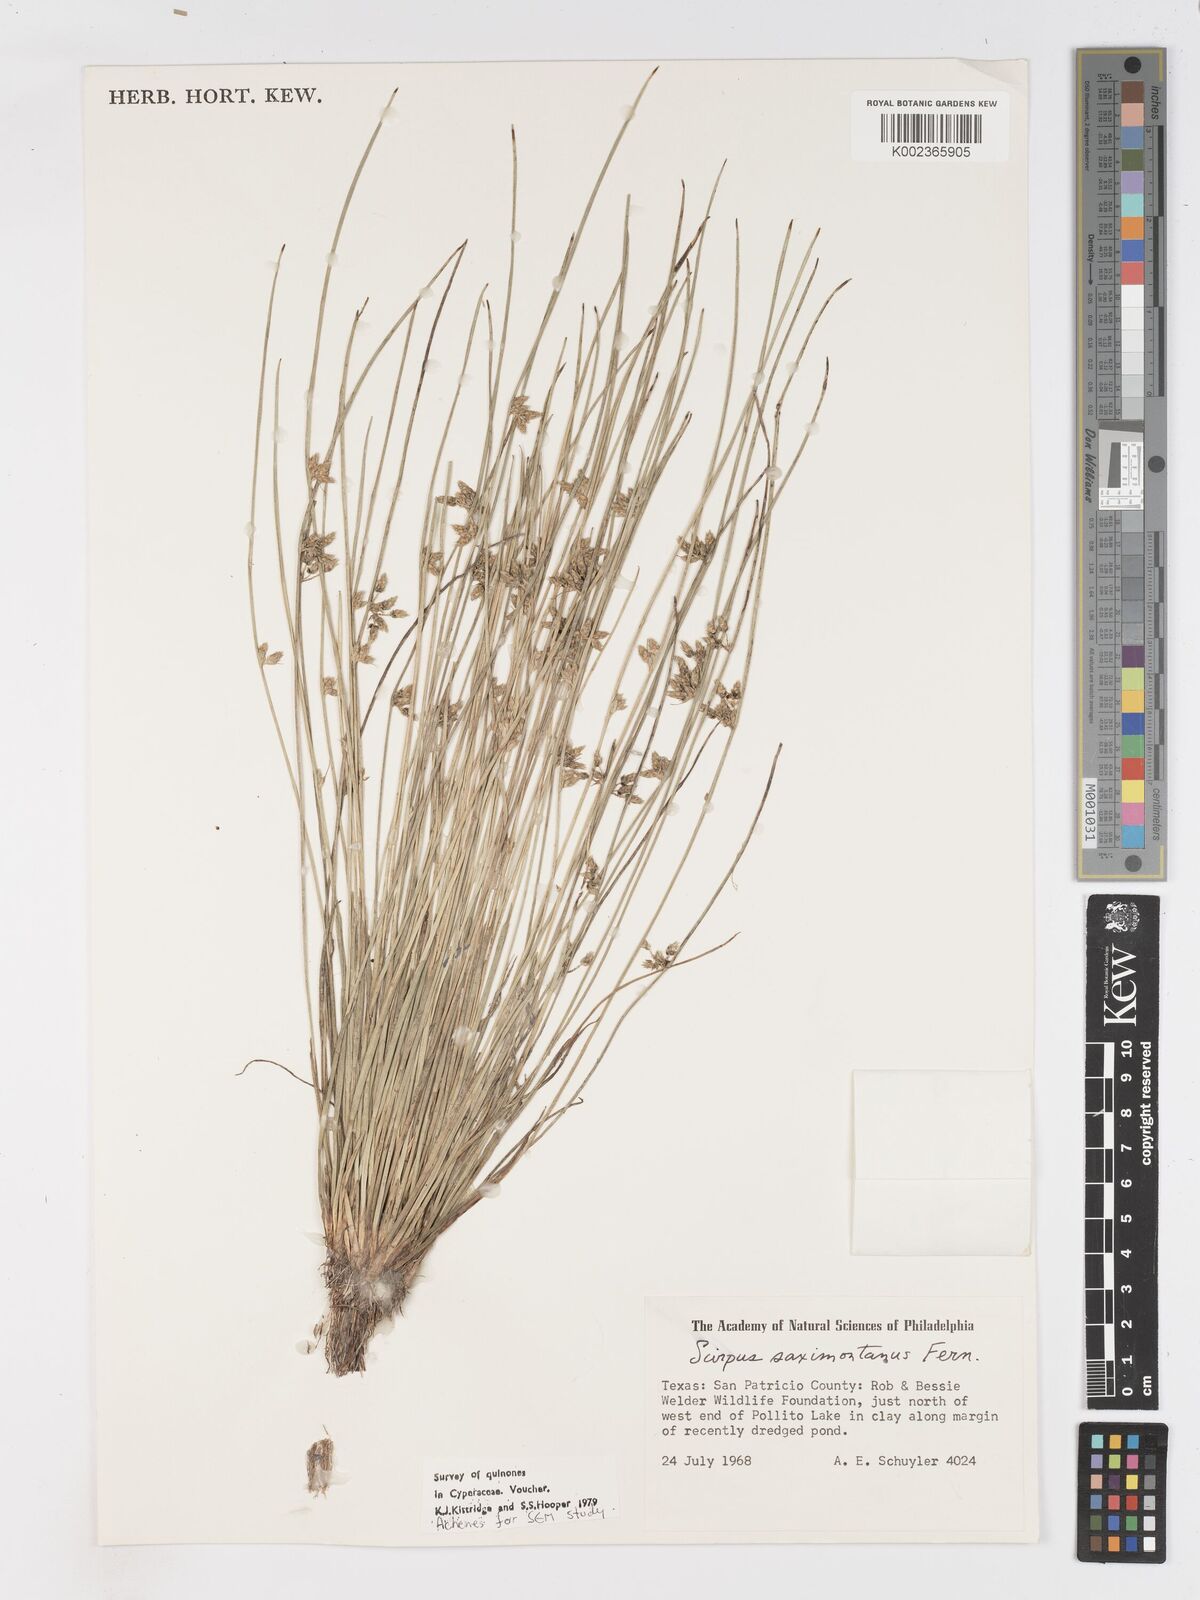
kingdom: Plantae
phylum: Tracheophyta
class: Liliopsida
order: Poales
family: Cyperaceae
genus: Schoenoplectiella
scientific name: Schoenoplectiella saximontana
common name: Rocky mountain clubrush
